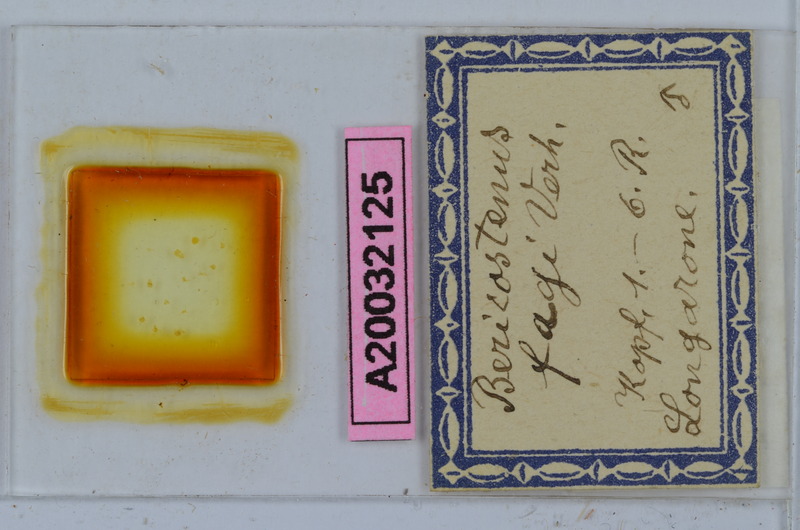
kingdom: Animalia
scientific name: Animalia
